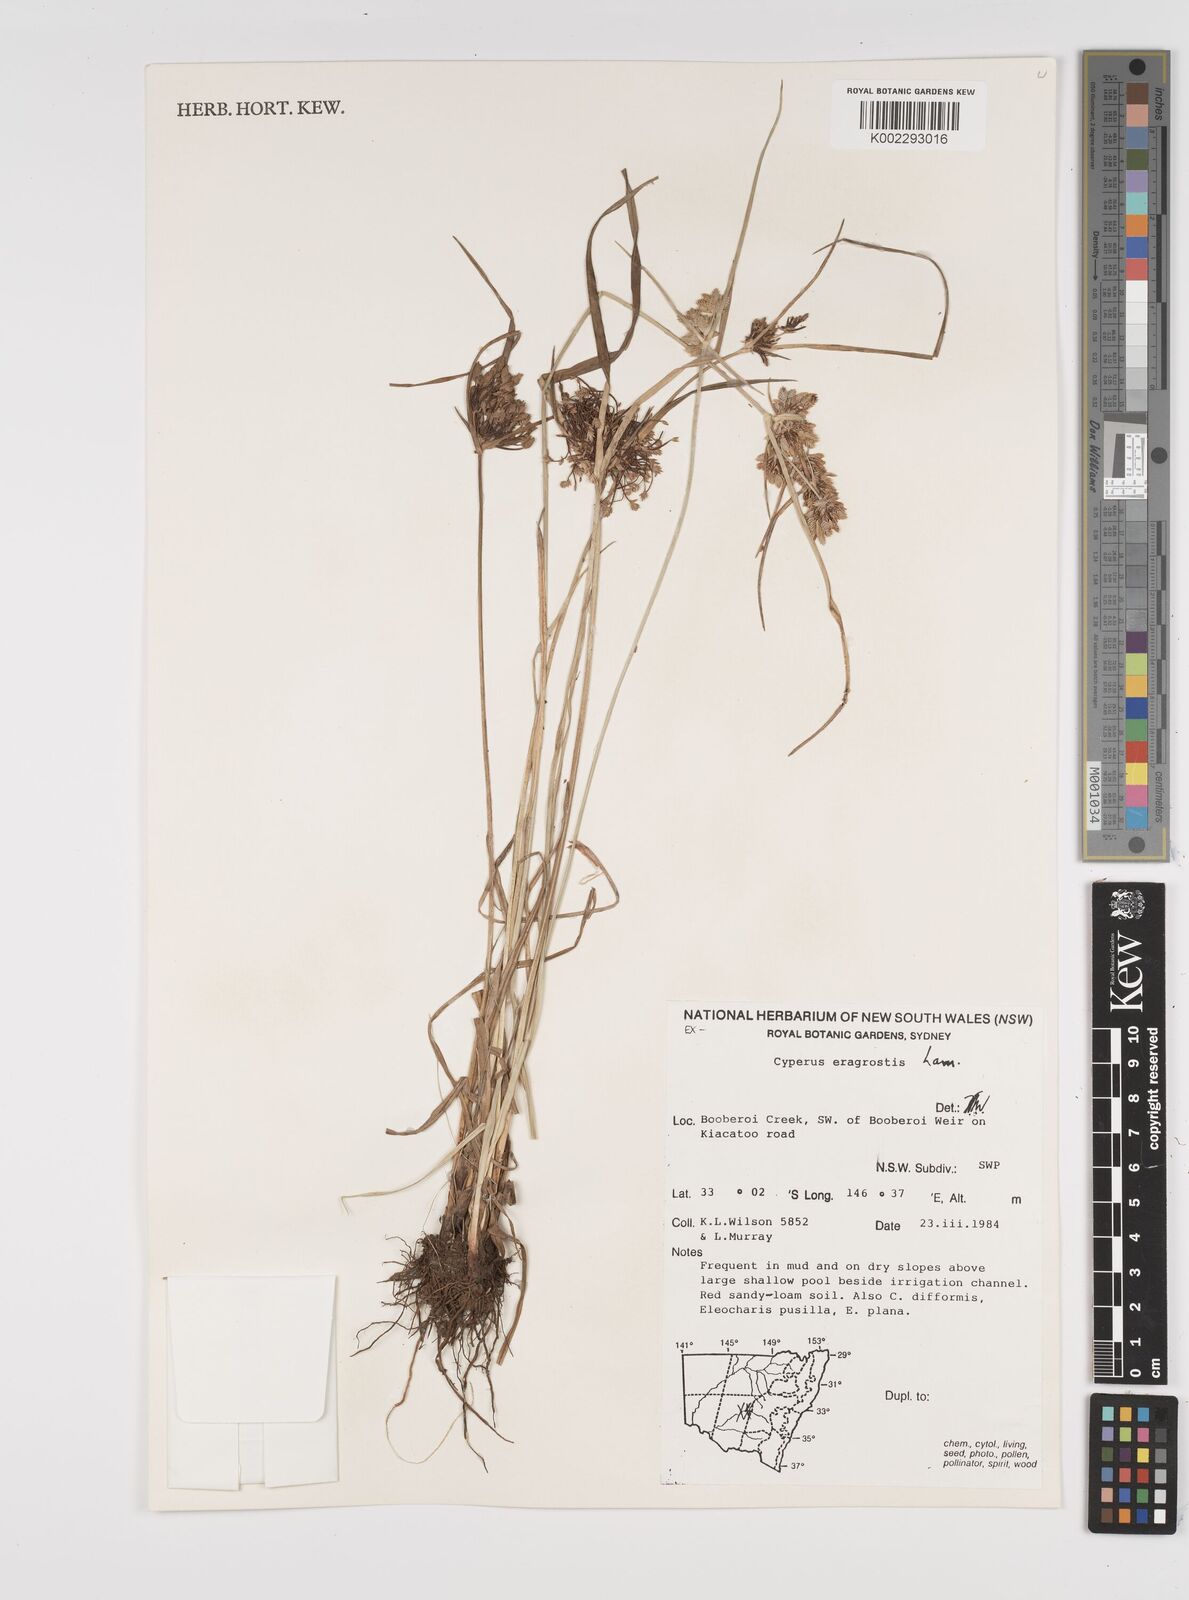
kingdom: Plantae
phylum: Tracheophyta
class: Liliopsida
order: Poales
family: Cyperaceae
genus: Cyperus
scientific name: Cyperus eragrostis
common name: Tall flatsedge
